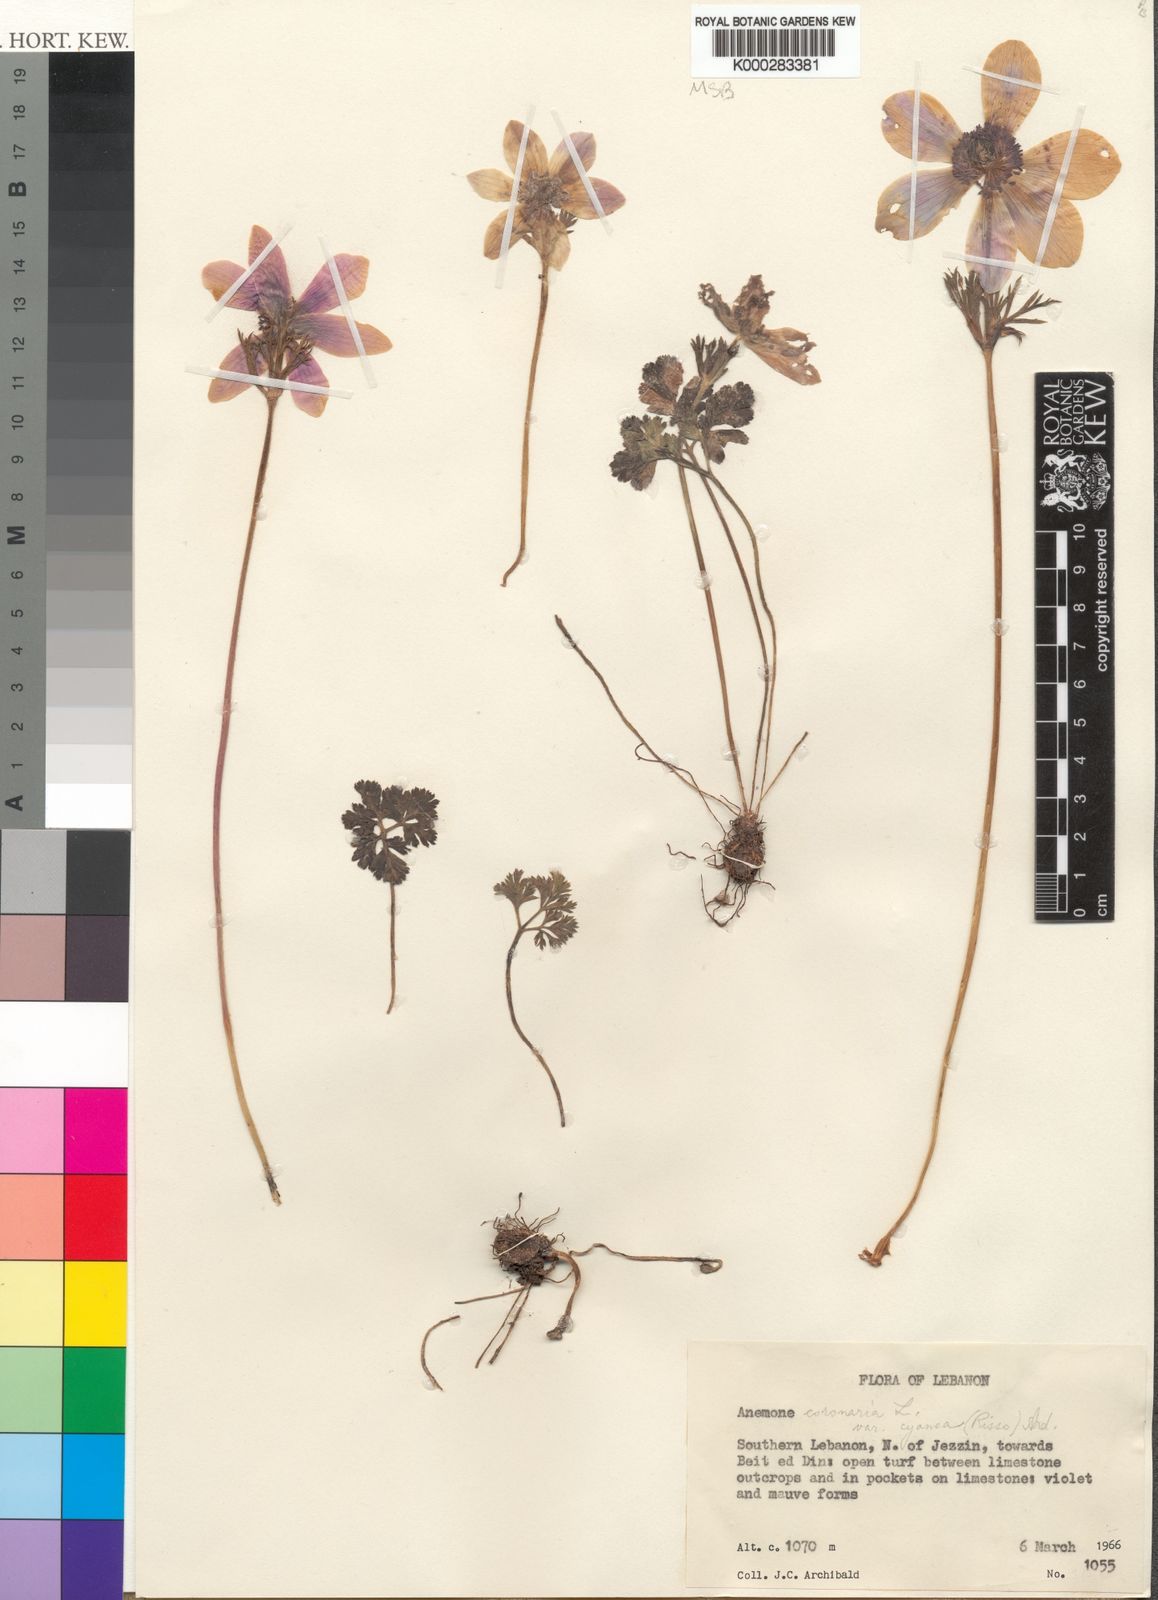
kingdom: Plantae
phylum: Tracheophyta
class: Magnoliopsida
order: Ranunculales
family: Ranunculaceae
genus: Anemone
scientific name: Anemone coronaria
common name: Poppy anemone
